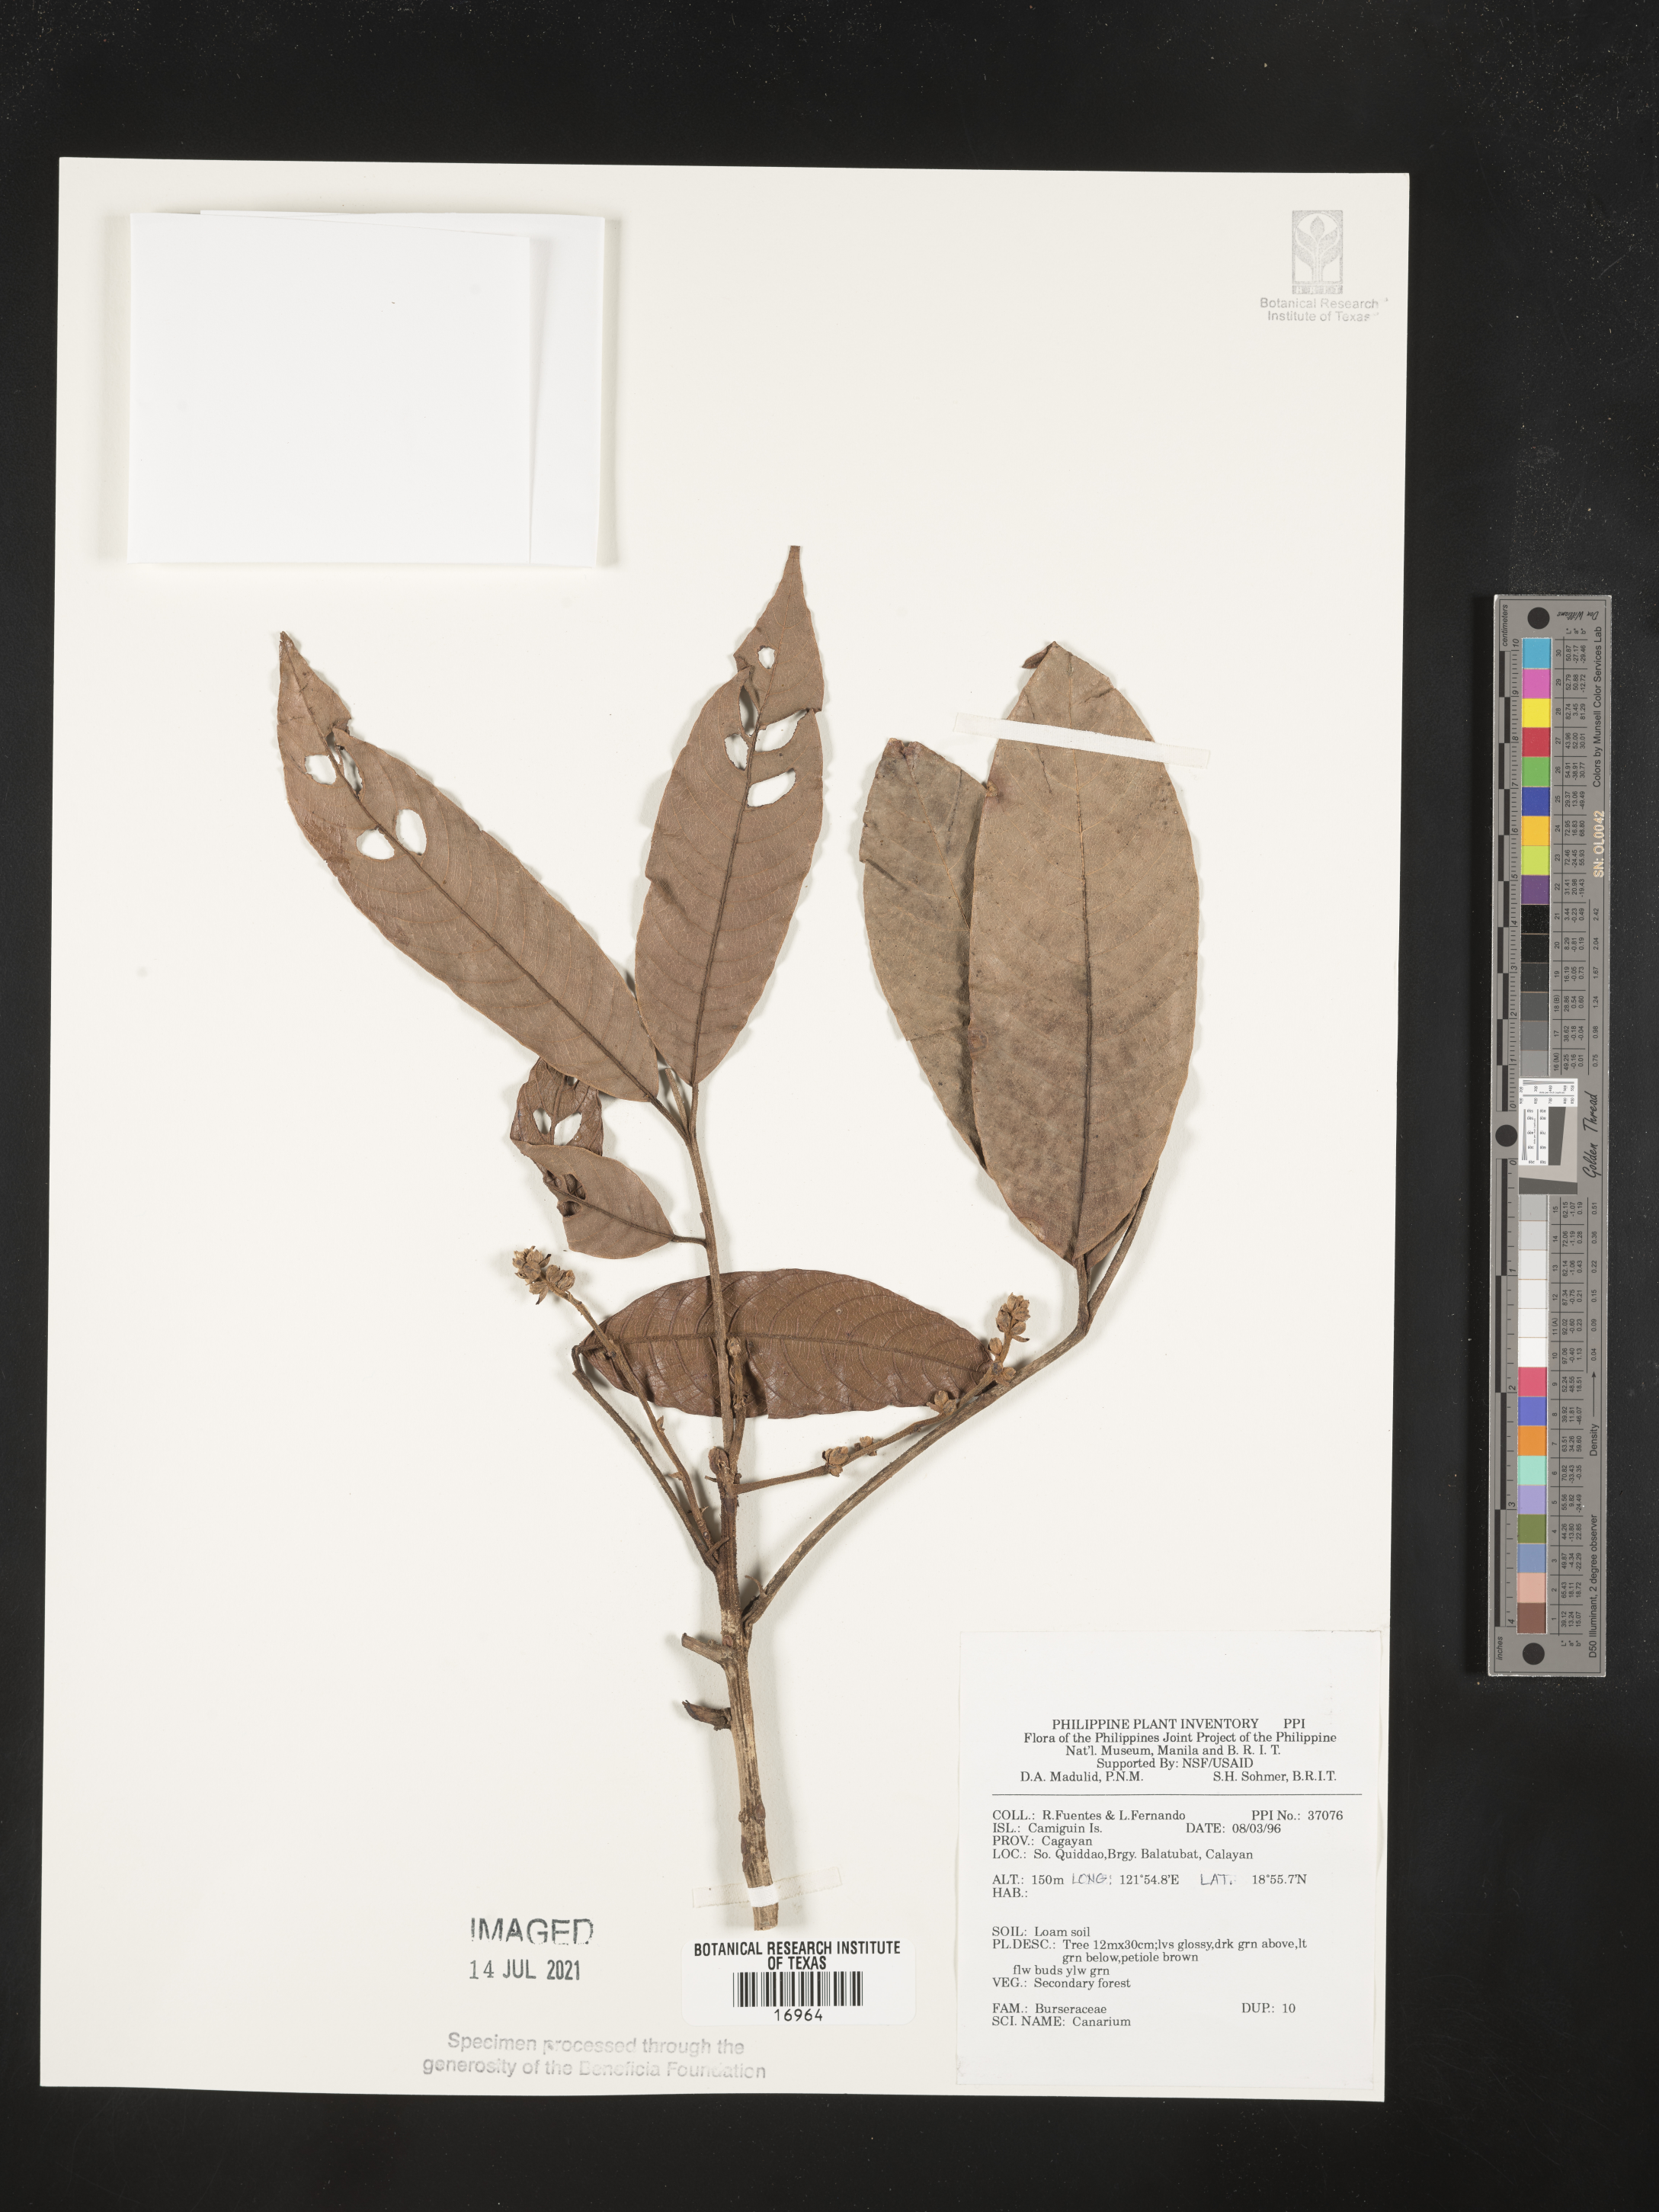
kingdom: Plantae
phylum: Tracheophyta
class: Magnoliopsida
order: Sapindales
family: Burseraceae
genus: Canarium
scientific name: Canarium
